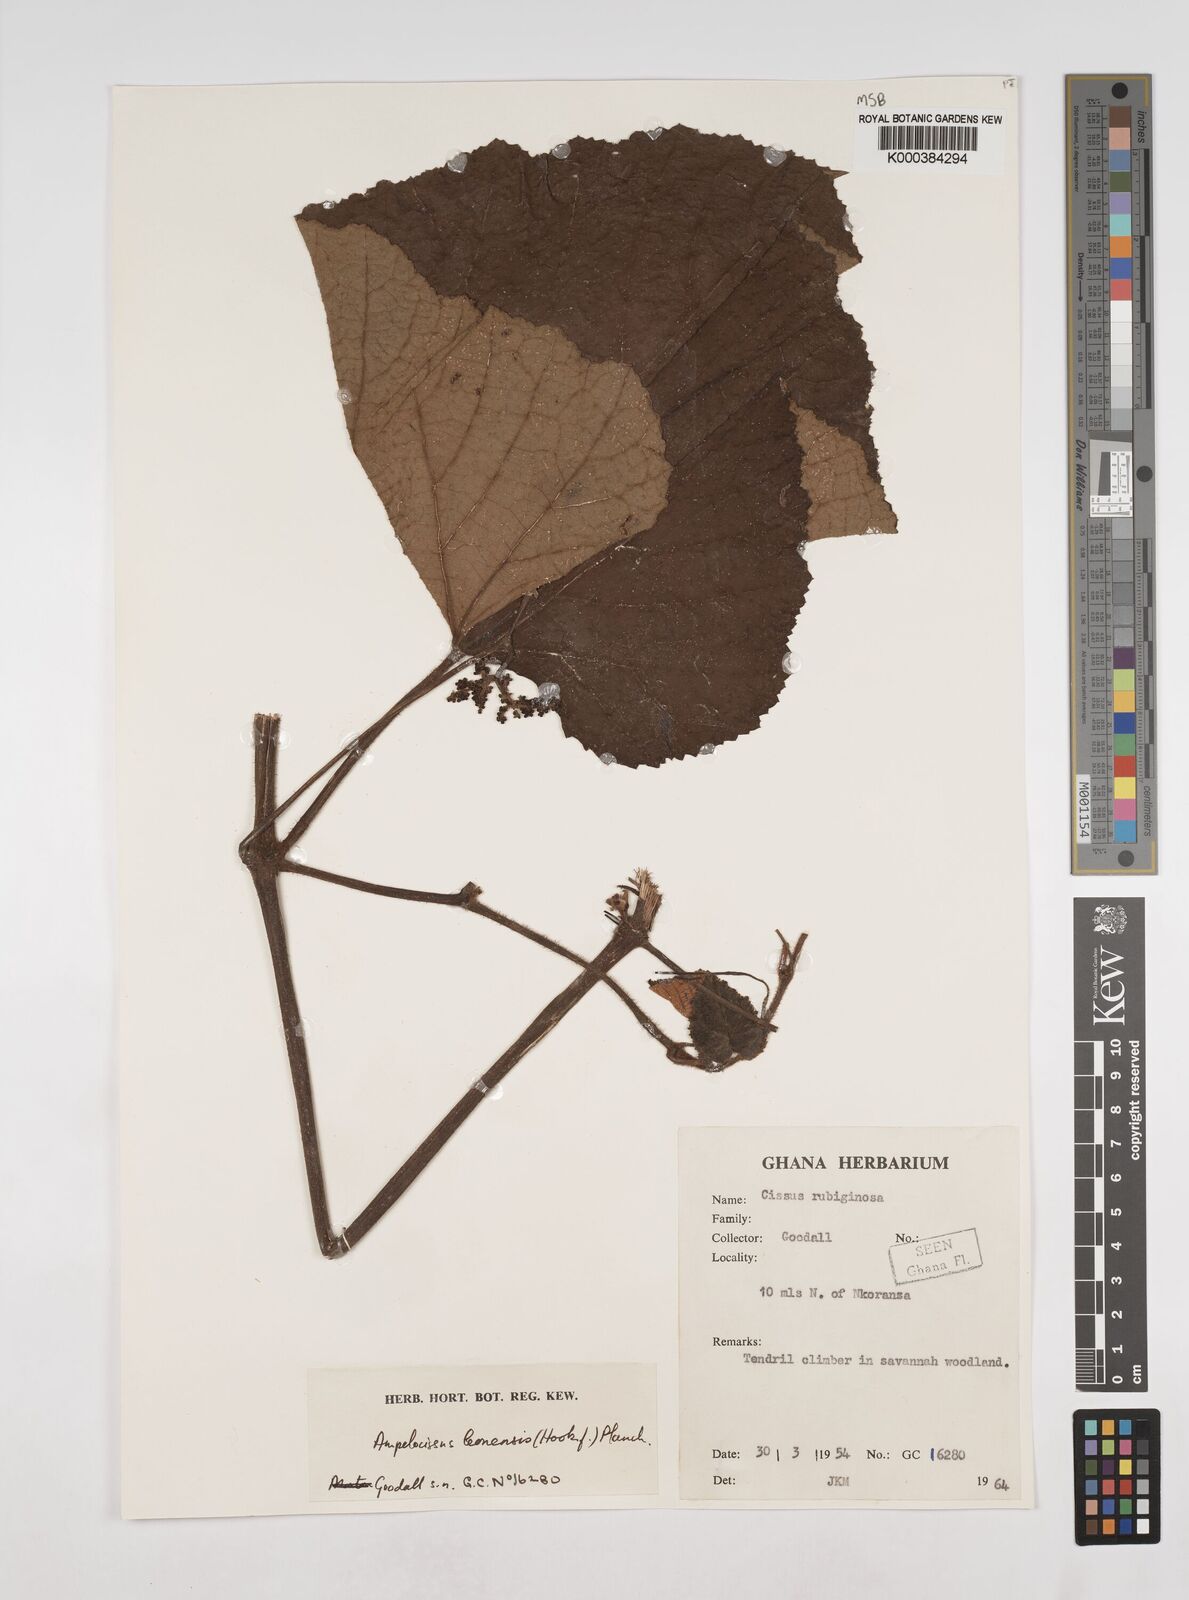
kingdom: Plantae
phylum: Tracheophyta
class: Magnoliopsida
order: Vitales
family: Vitaceae
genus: Ampelocissus
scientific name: Ampelocissus leonensis
